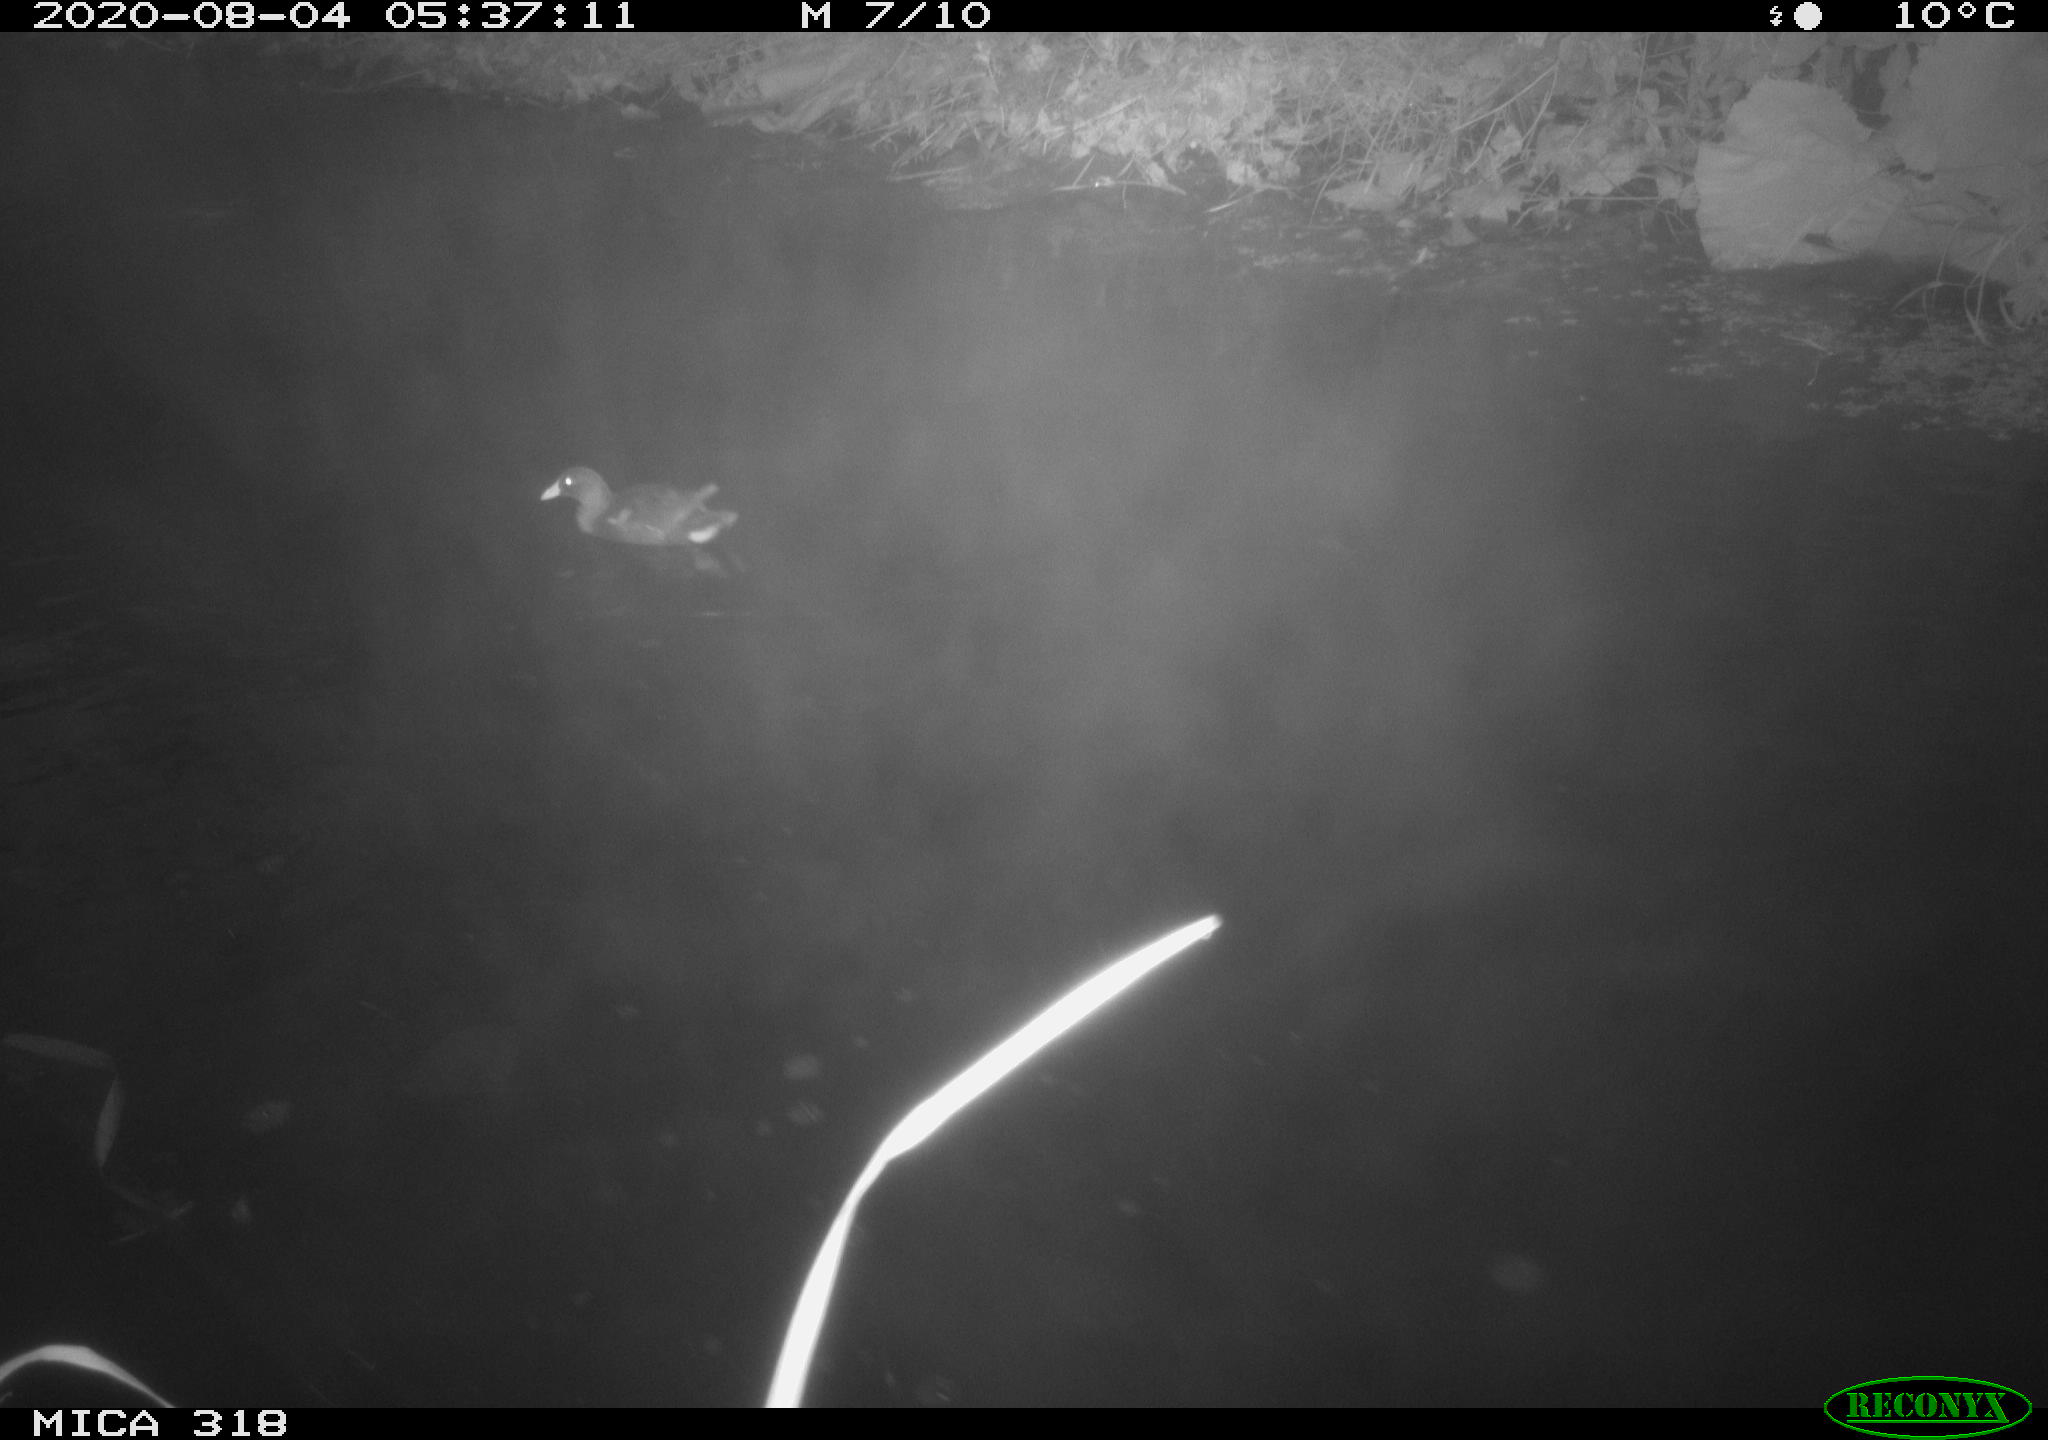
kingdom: Animalia
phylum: Chordata
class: Aves
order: Gruiformes
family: Rallidae
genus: Gallinula
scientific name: Gallinula chloropus
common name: Common moorhen
